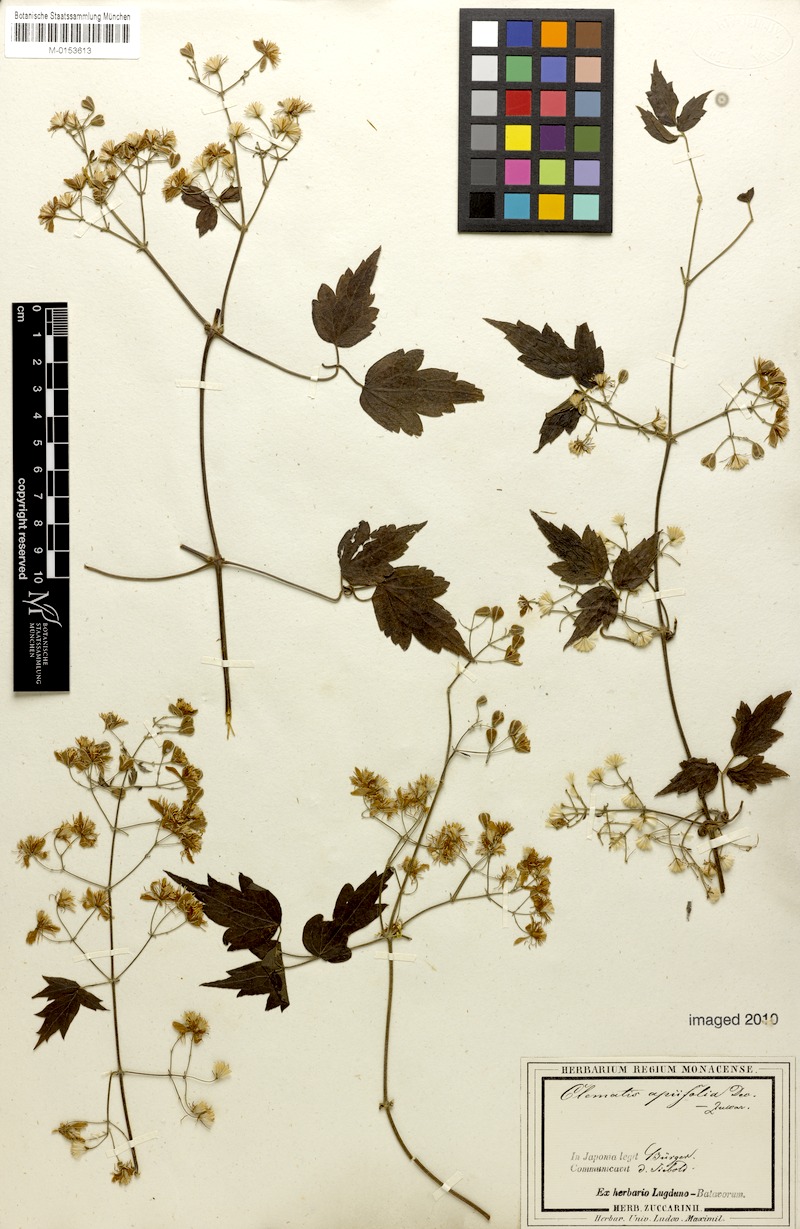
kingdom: Plantae
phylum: Tracheophyta
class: Magnoliopsida
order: Ranunculales
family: Ranunculaceae
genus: Clematis
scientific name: Clematis apiifolia
